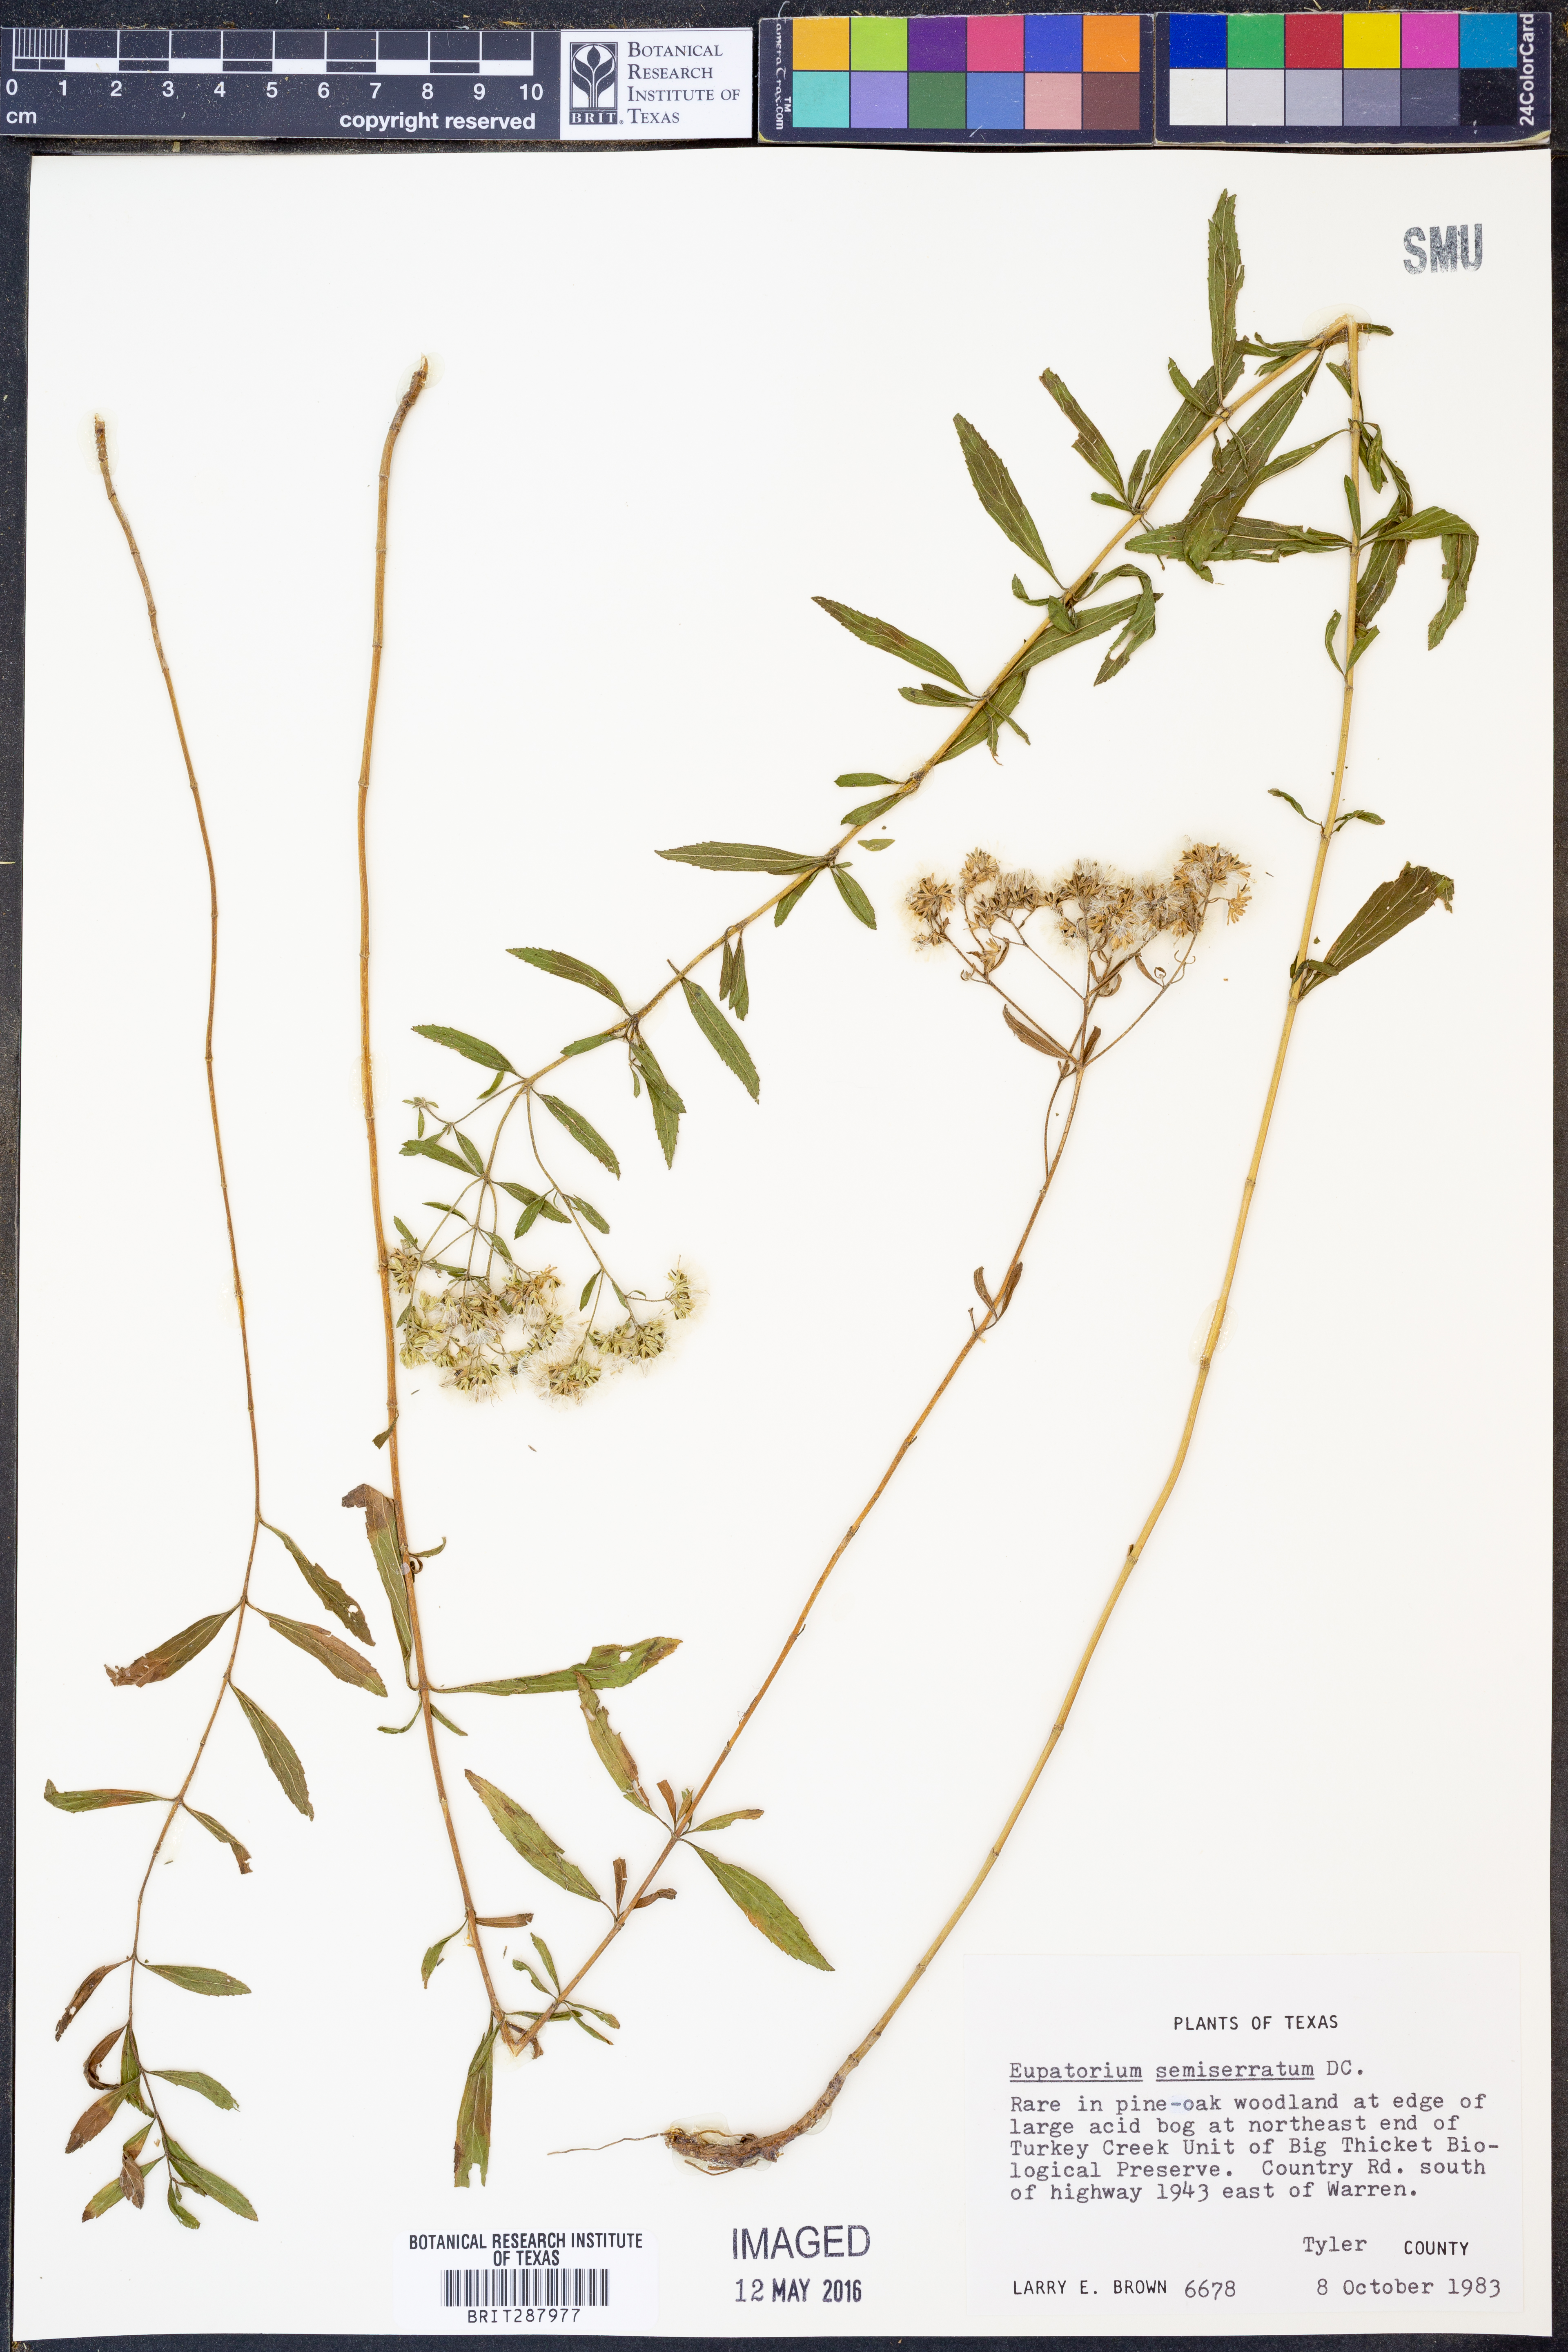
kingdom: Plantae
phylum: Tracheophyta
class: Magnoliopsida
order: Asterales
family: Asteraceae
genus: Eupatorium
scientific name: Eupatorium semiserratum
